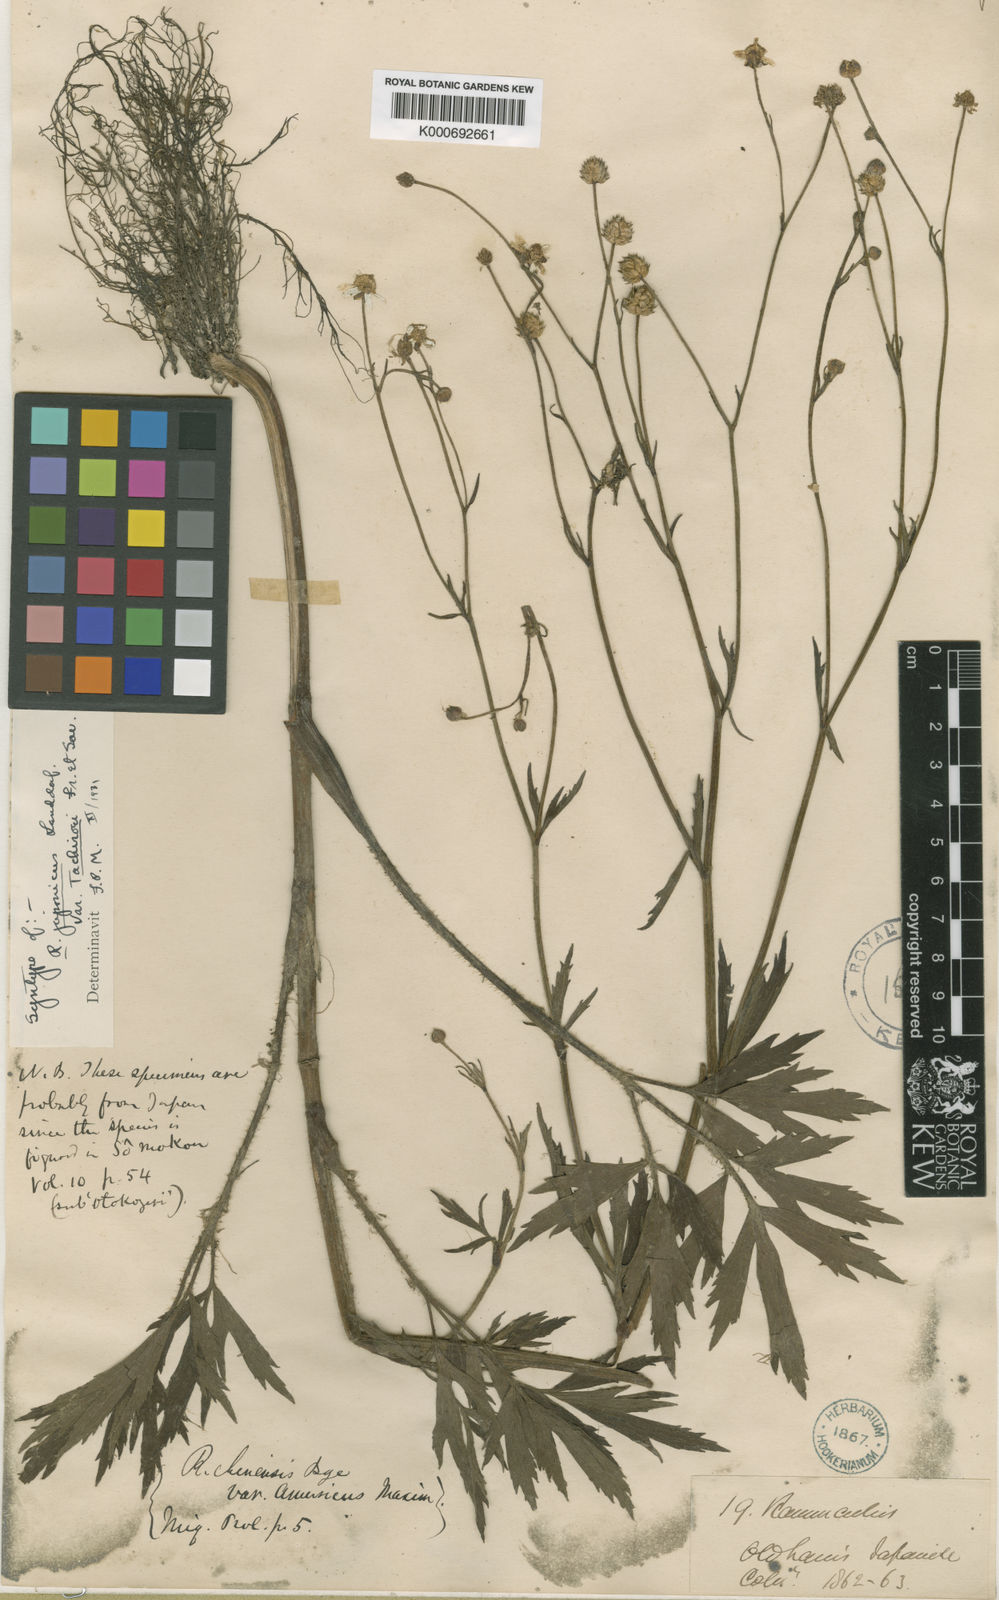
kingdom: Plantae
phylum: Tracheophyta
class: Magnoliopsida
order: Ranunculales
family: Ranunculaceae
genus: Ranunculus
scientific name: Ranunculus acris
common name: Meadow buttercup
